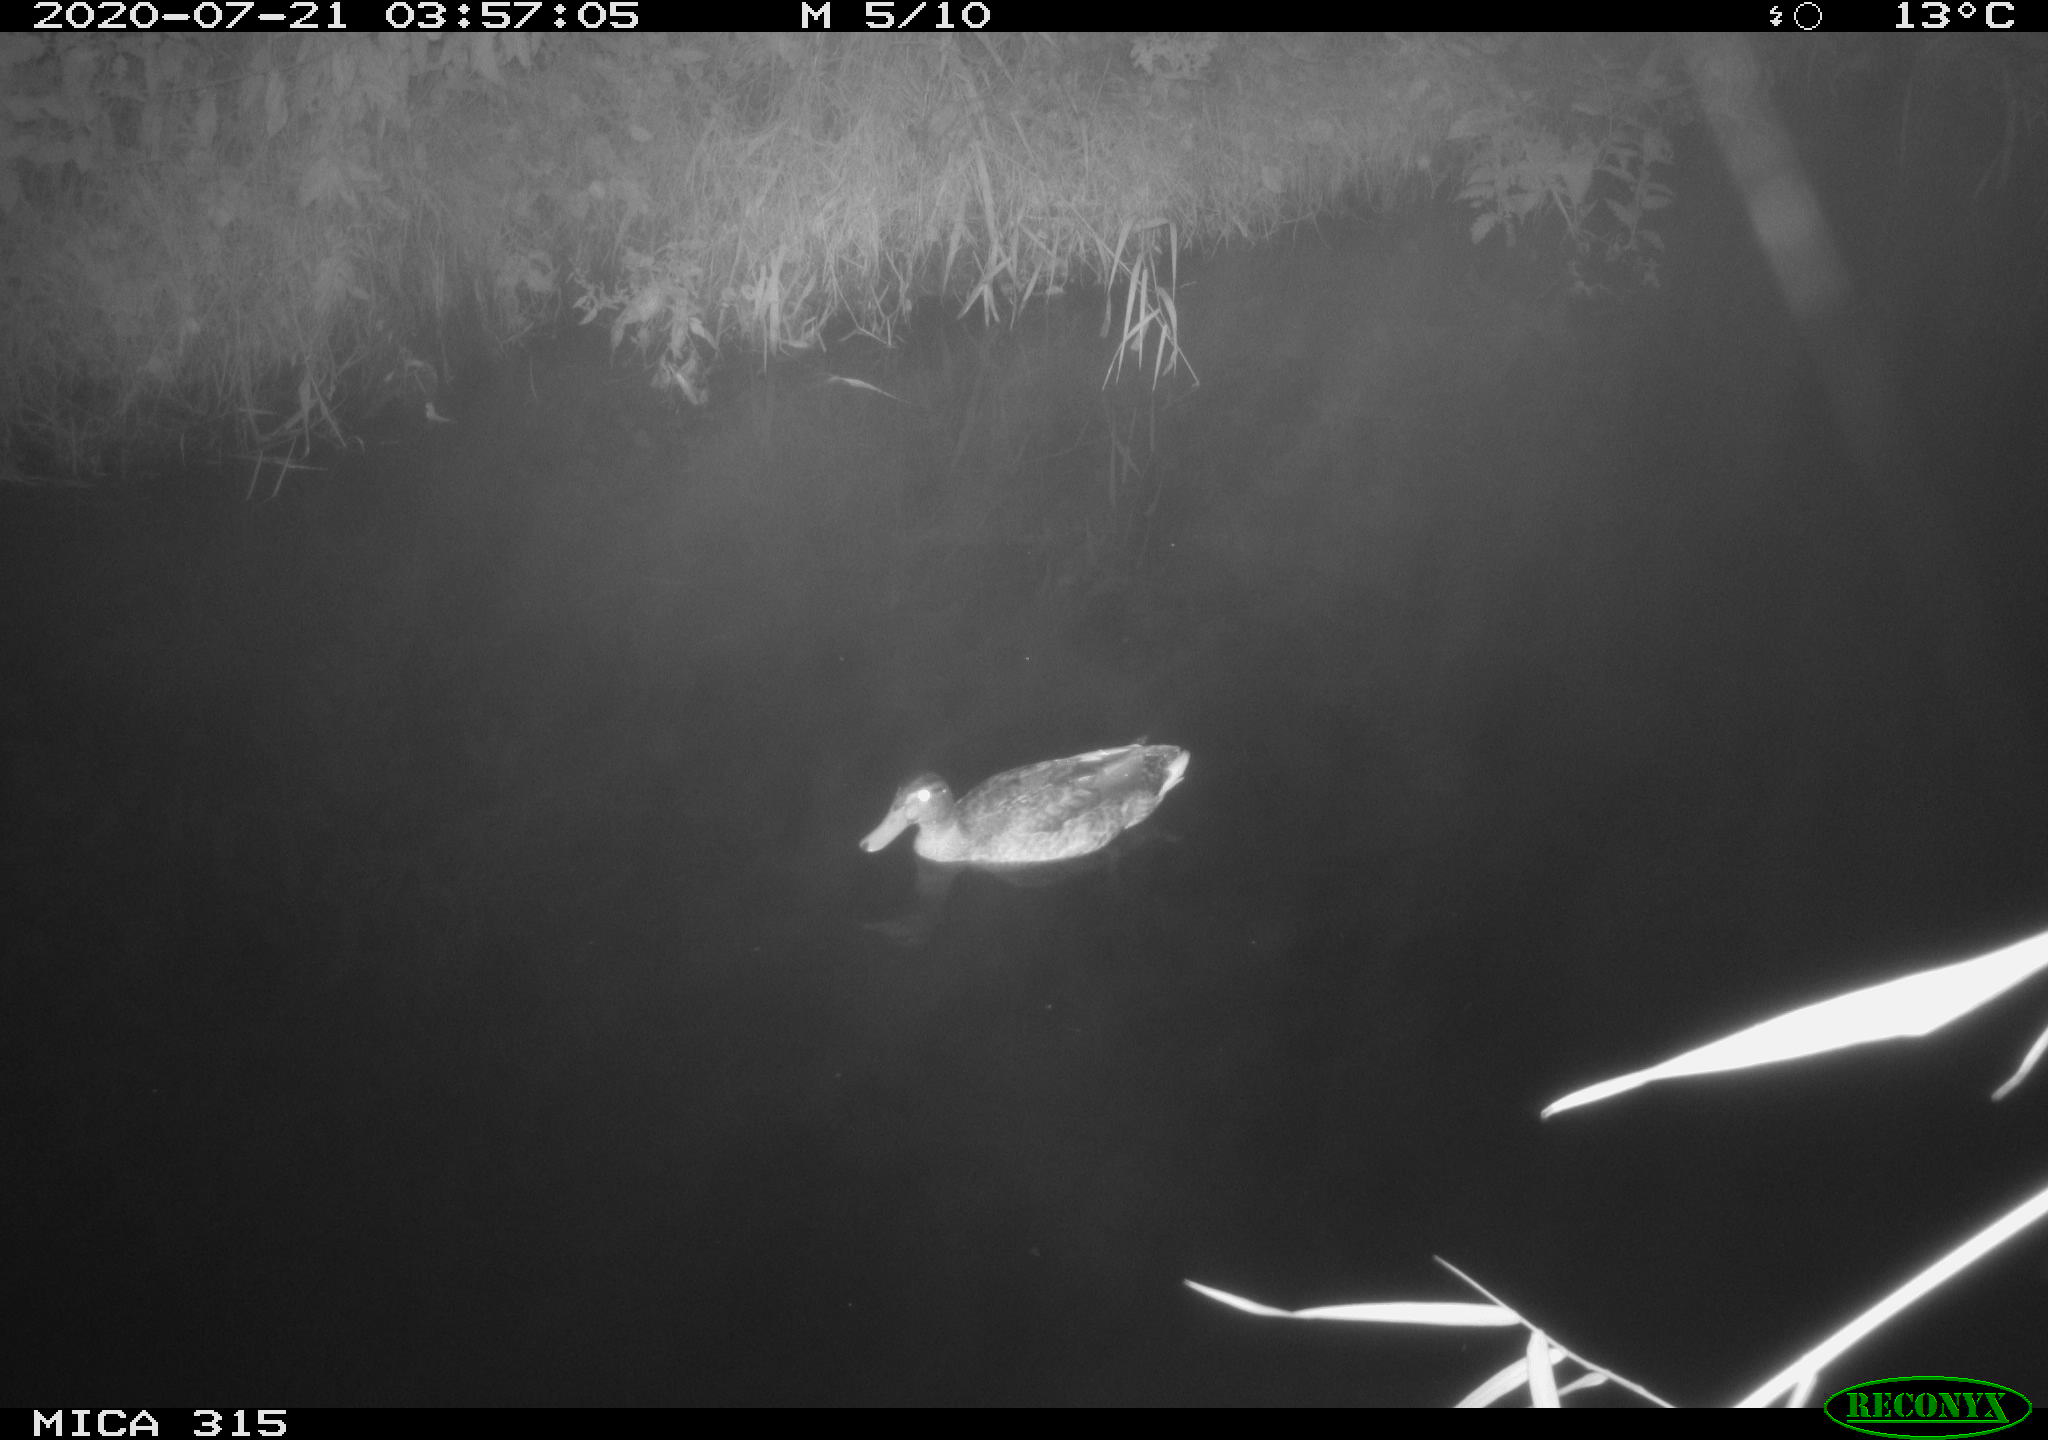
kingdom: Animalia
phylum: Chordata
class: Aves
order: Anseriformes
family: Anatidae
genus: Anas
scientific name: Anas platyrhynchos
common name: Mallard
